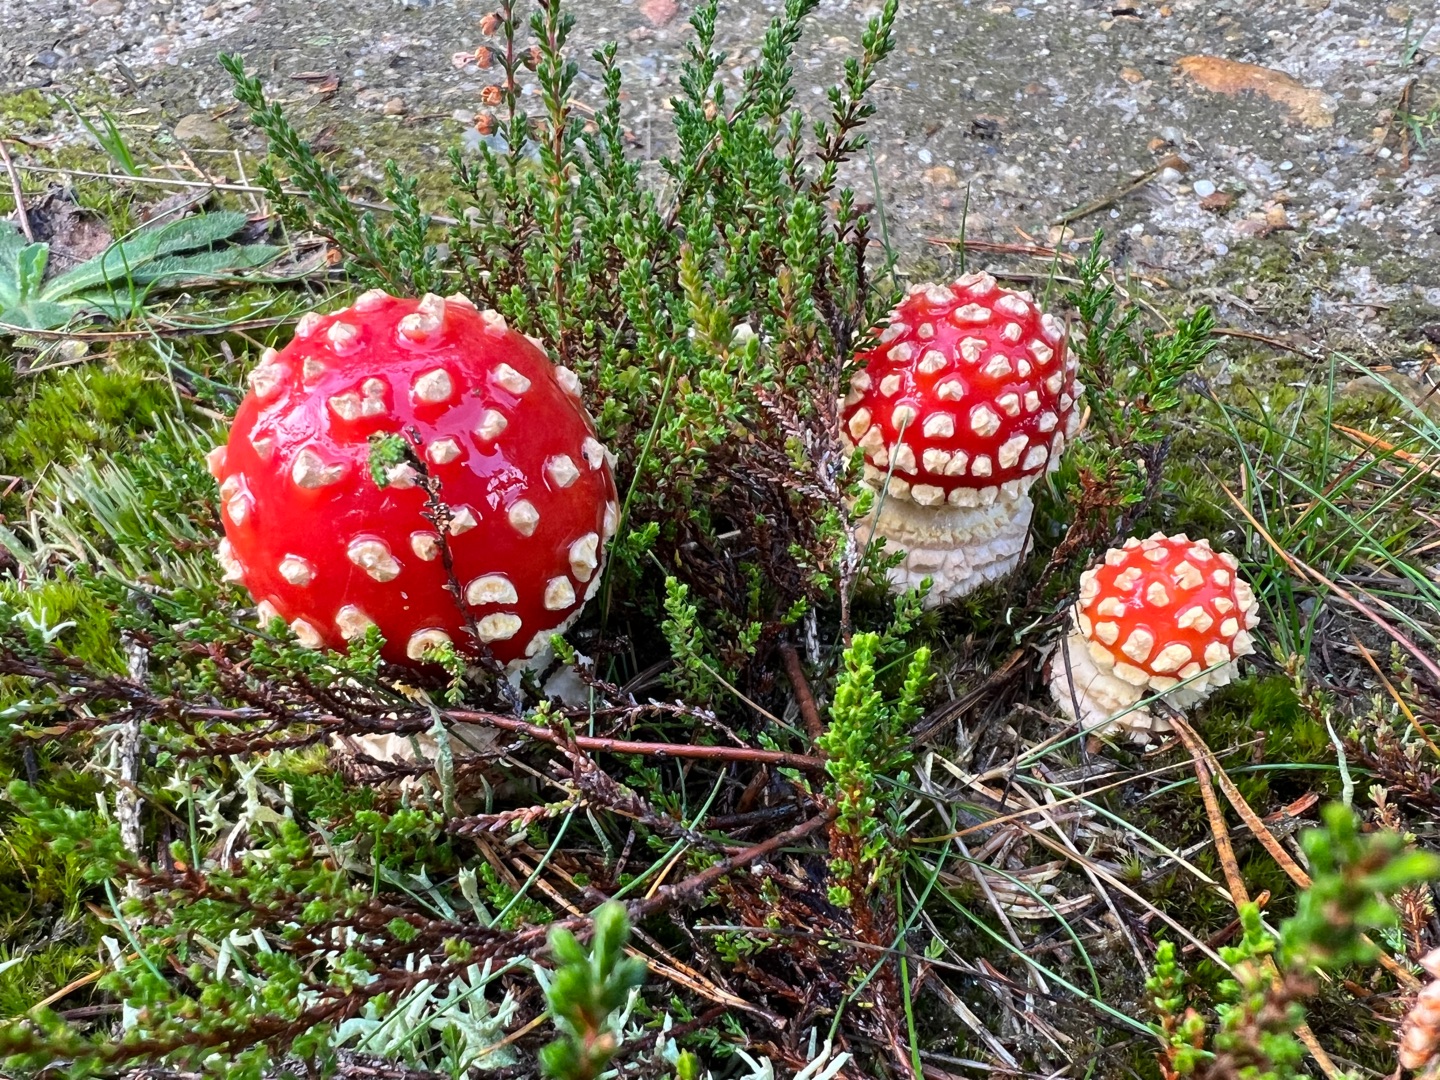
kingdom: Fungi
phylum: Basidiomycota
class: Agaricomycetes
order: Agaricales
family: Amanitaceae
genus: Amanita
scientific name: Amanita muscaria
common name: Rød fluesvamp
